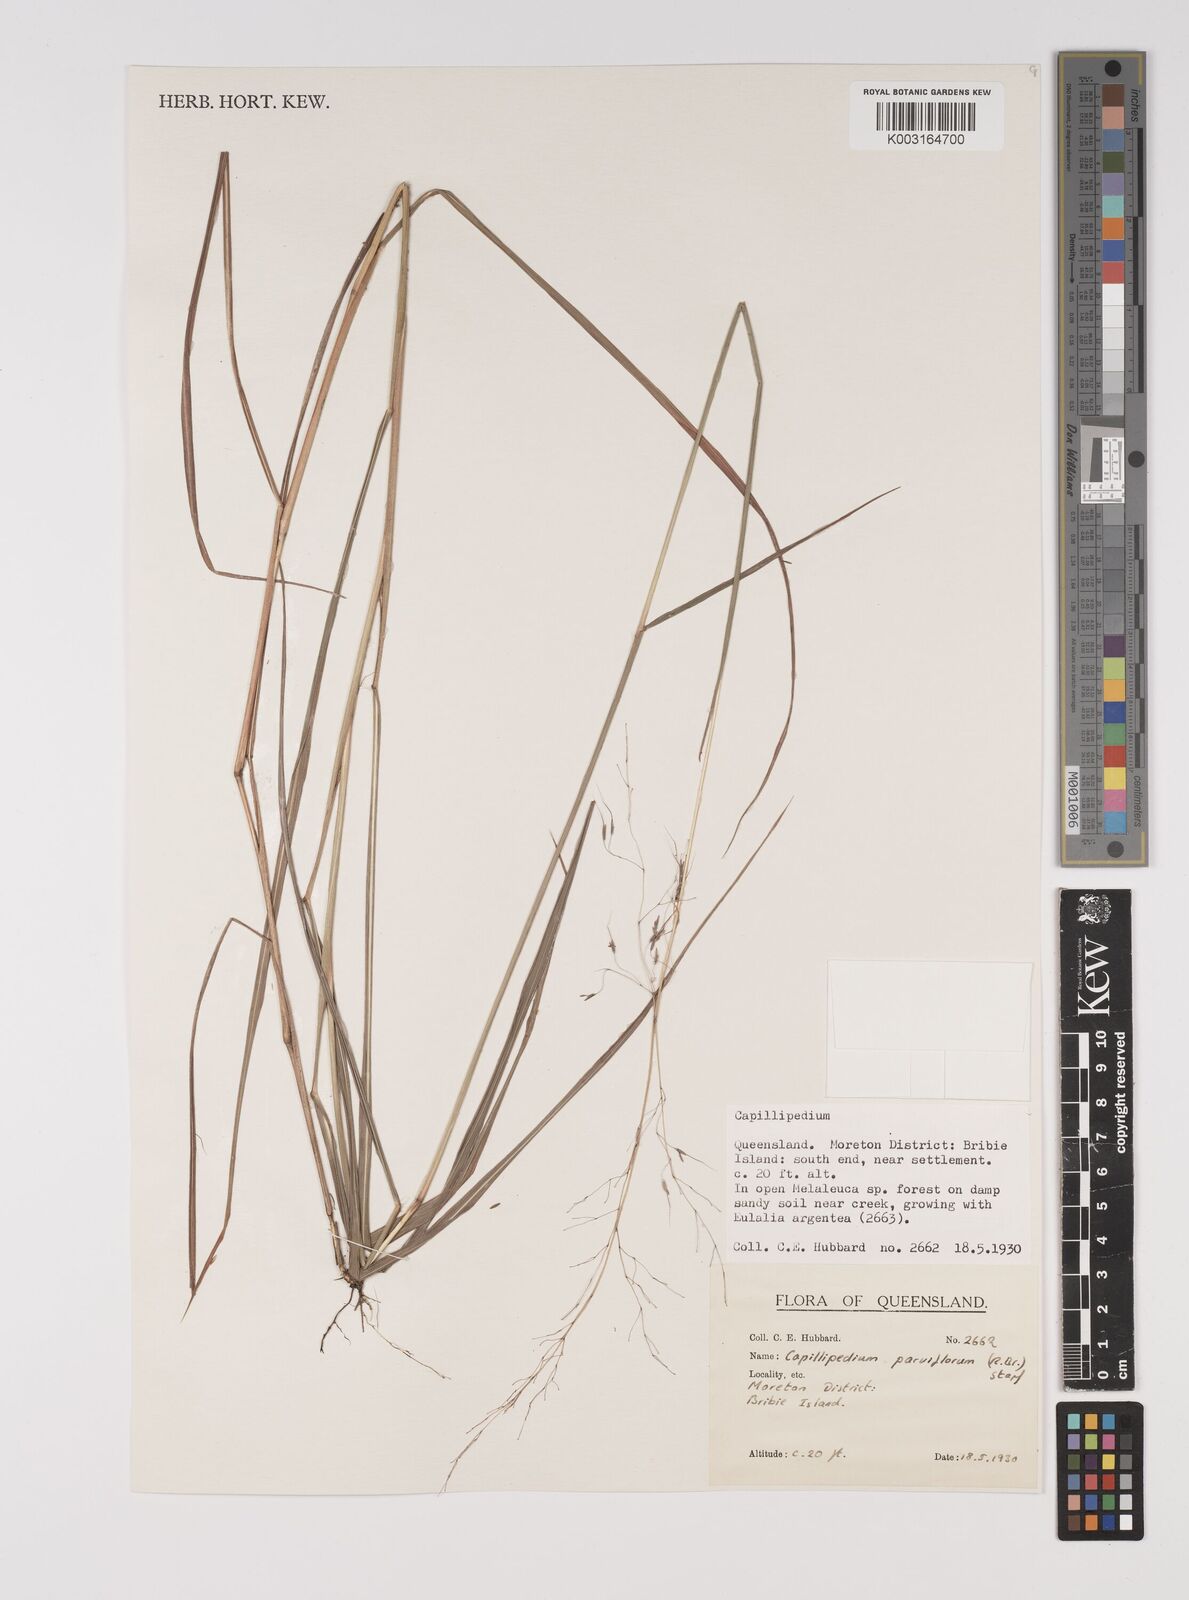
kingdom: Plantae
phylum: Tracheophyta
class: Liliopsida
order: Poales
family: Poaceae
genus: Capillipedium
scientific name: Capillipedium parviflorum
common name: Golden-beard
